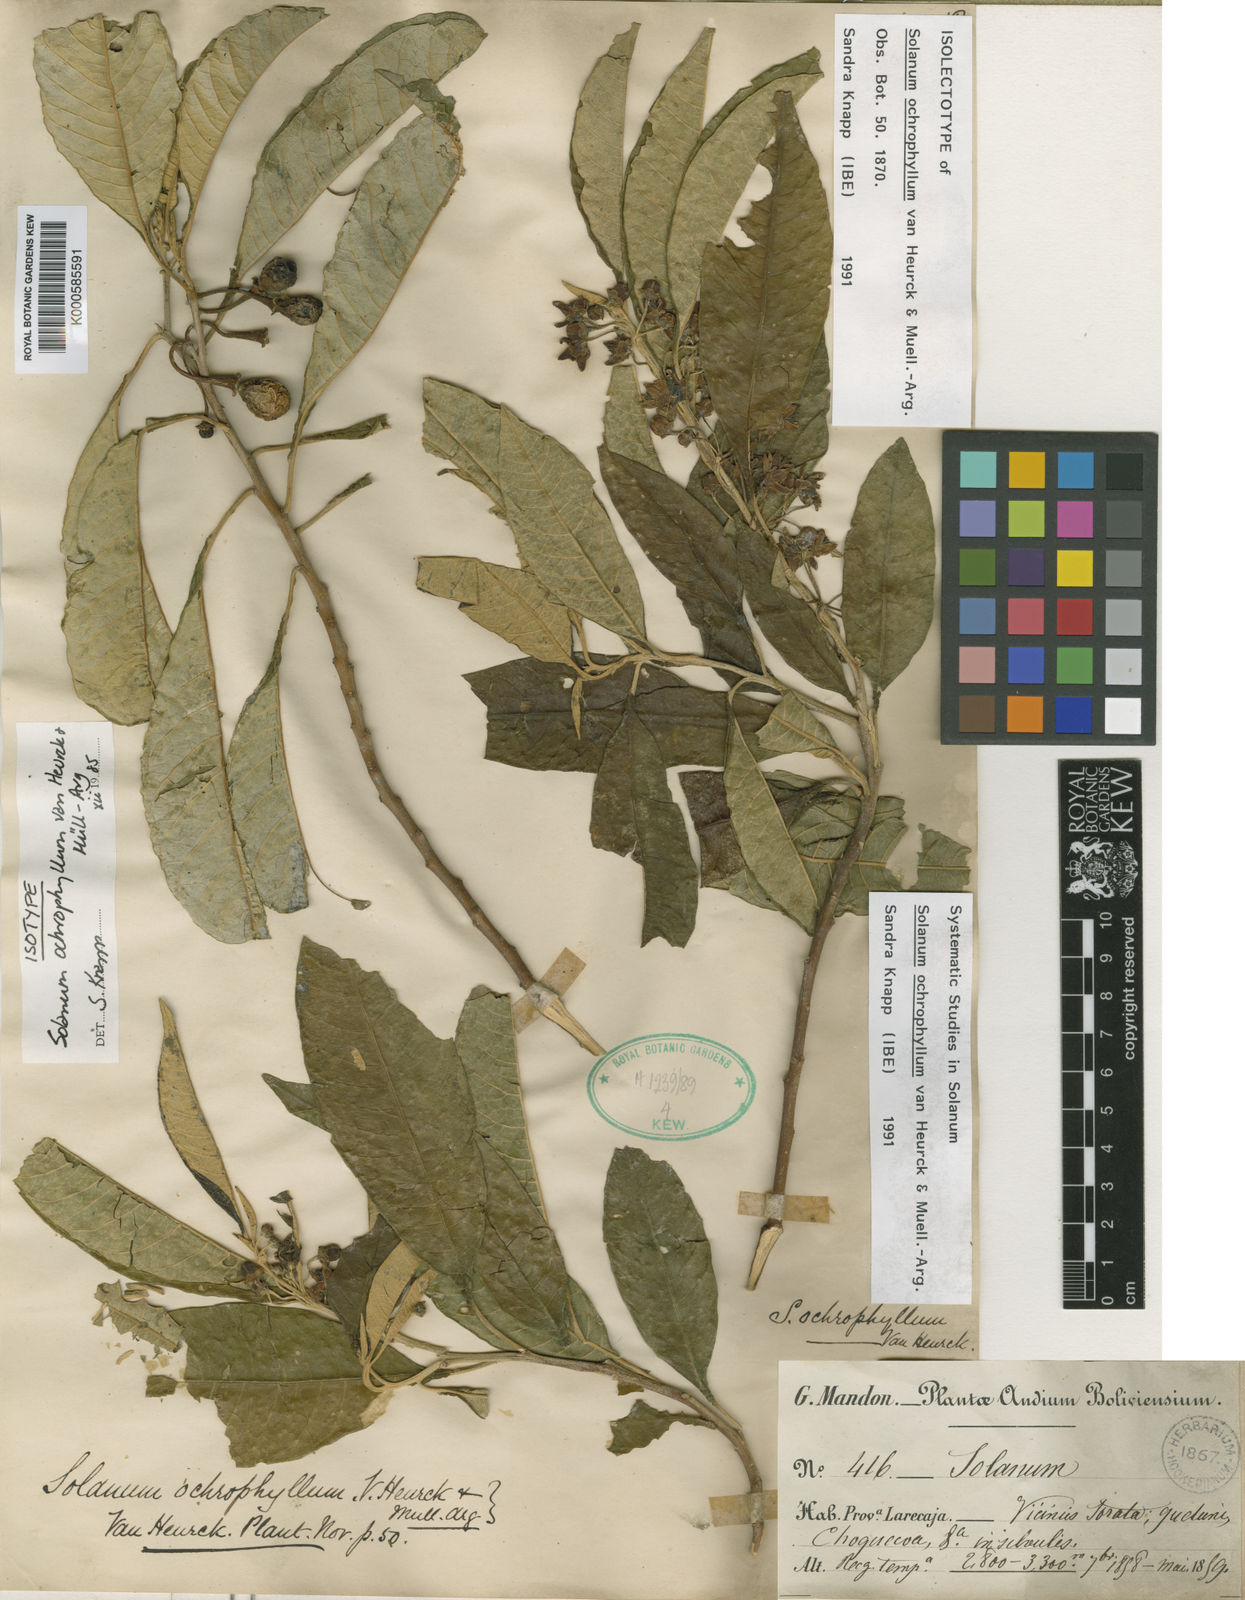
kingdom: Plantae
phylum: Tracheophyta
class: Magnoliopsida
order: Solanales
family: Solanaceae
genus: Solanum
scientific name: Solanum
